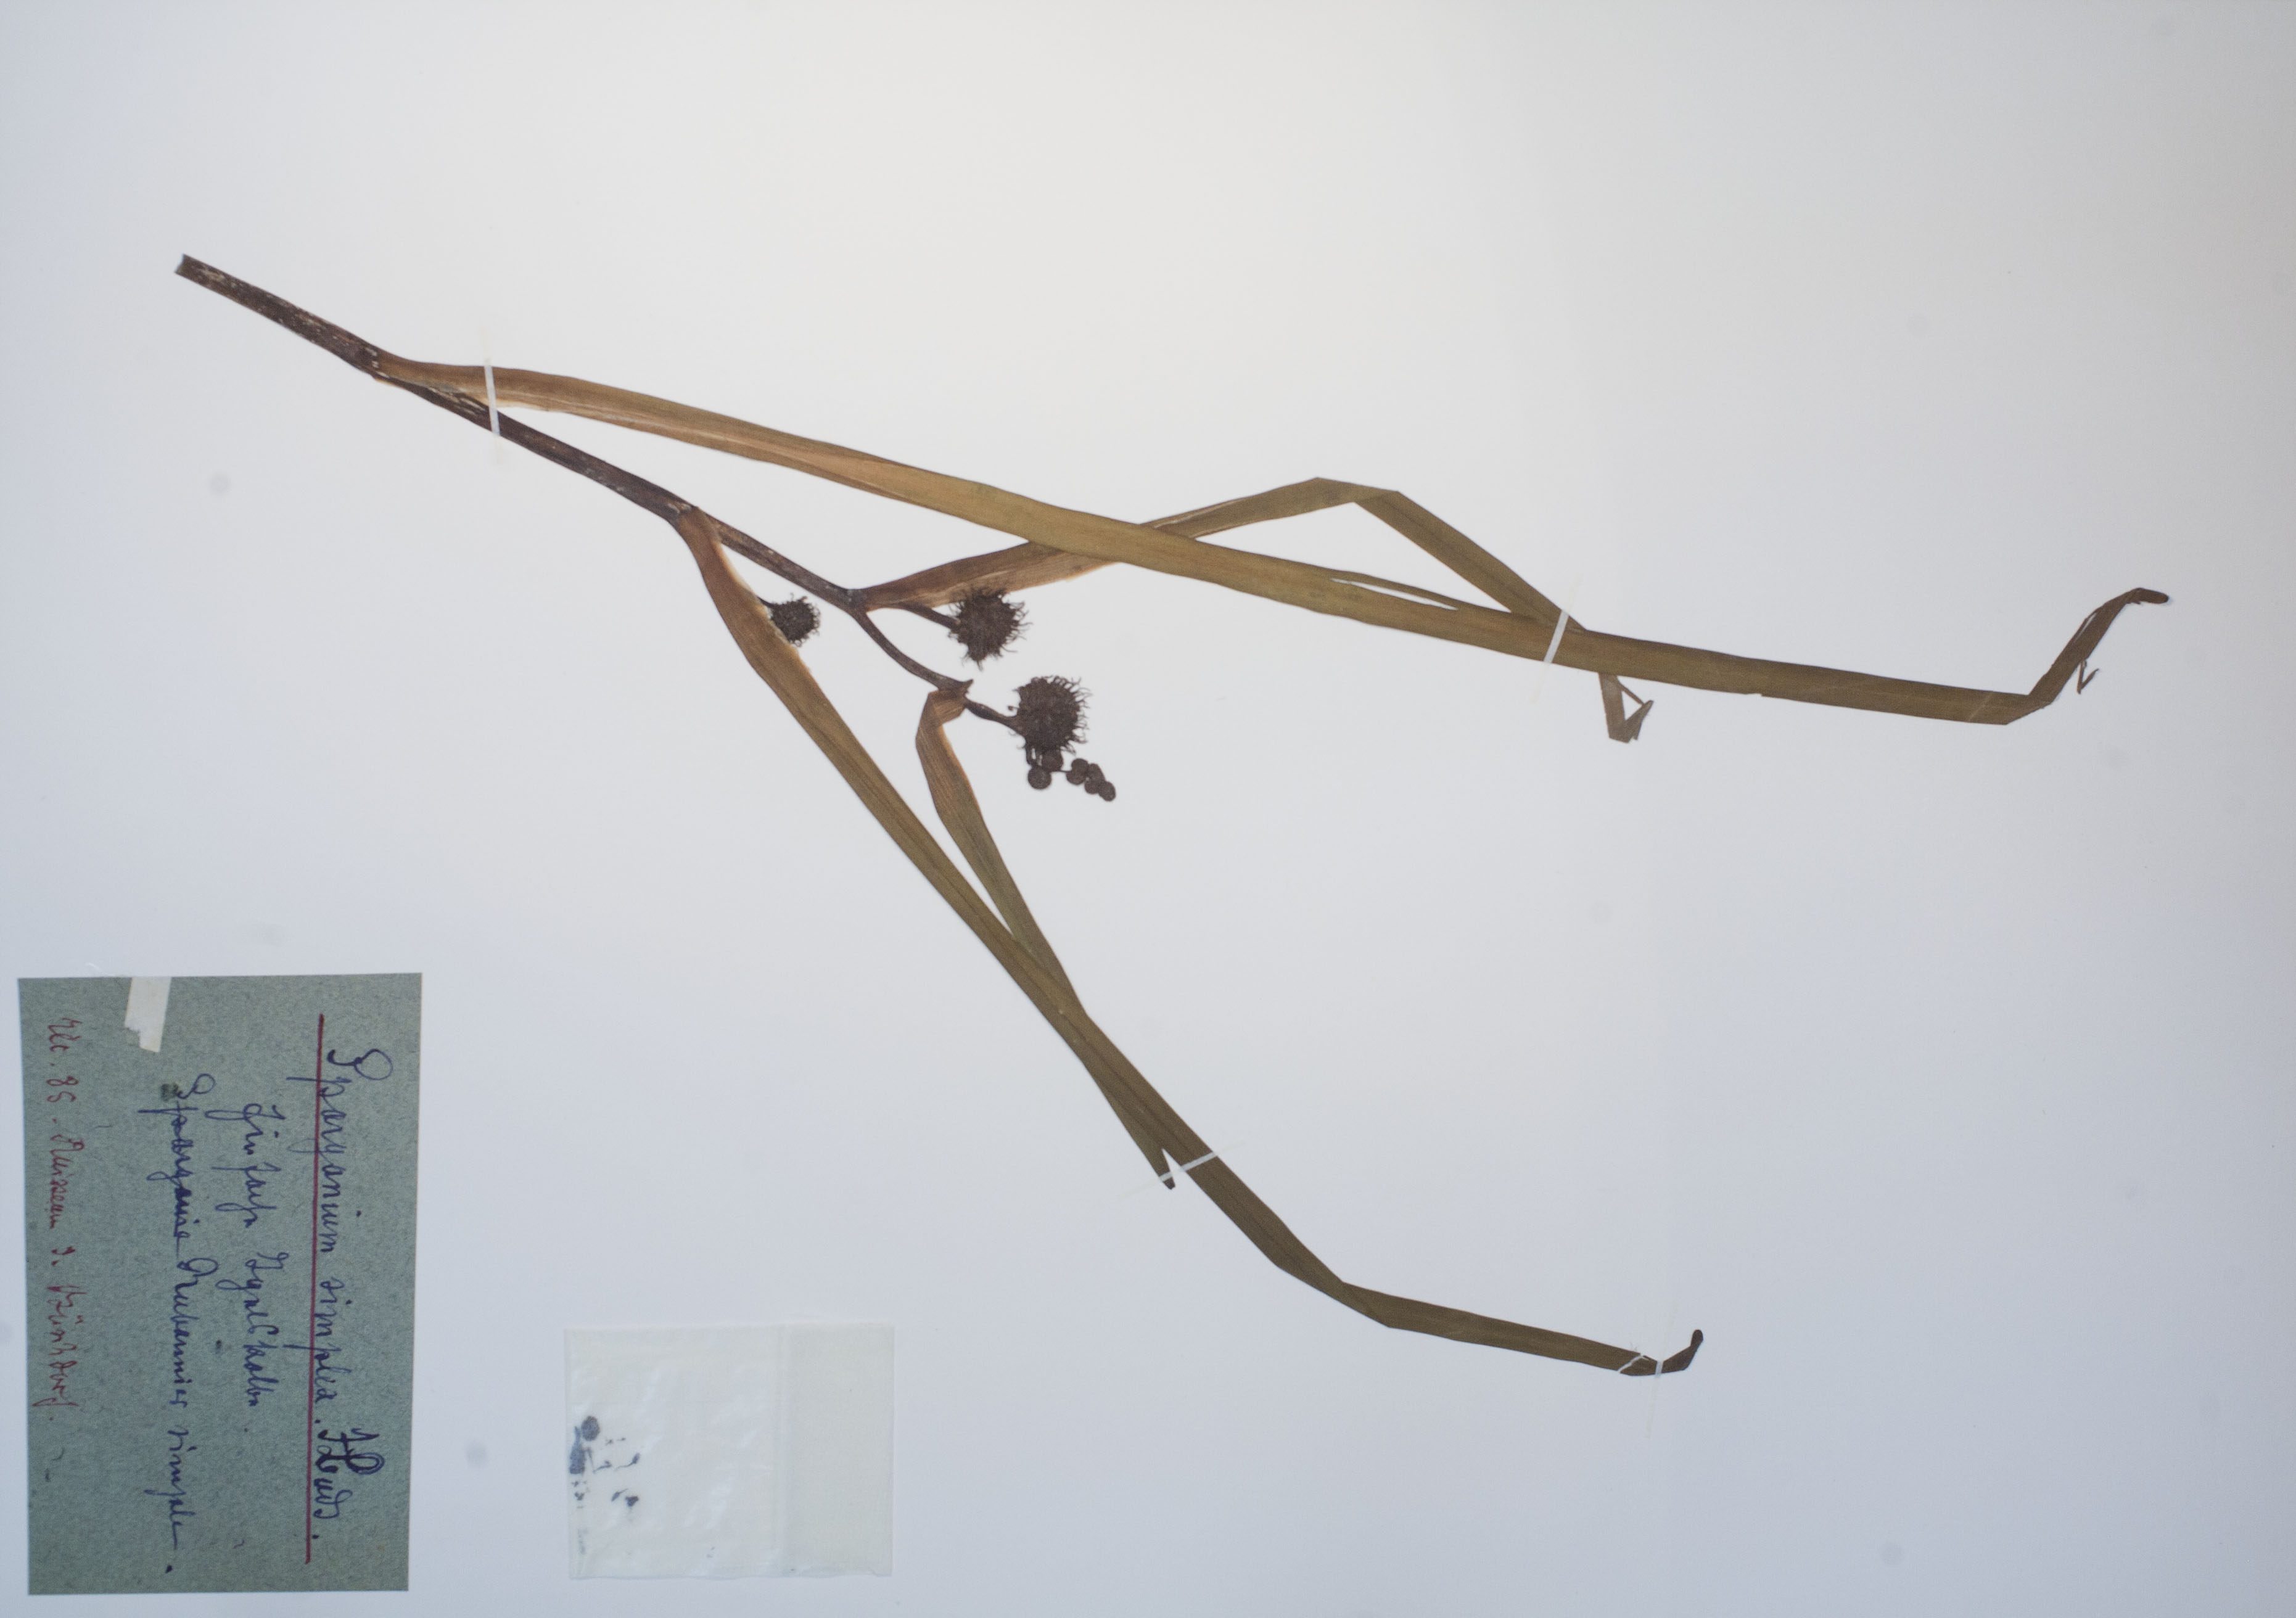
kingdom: Plantae
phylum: Tracheophyta
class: Liliopsida
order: Poales
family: Typhaceae
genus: Sparganium
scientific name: Sparganium emersum
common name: Unbranched bur-reed
